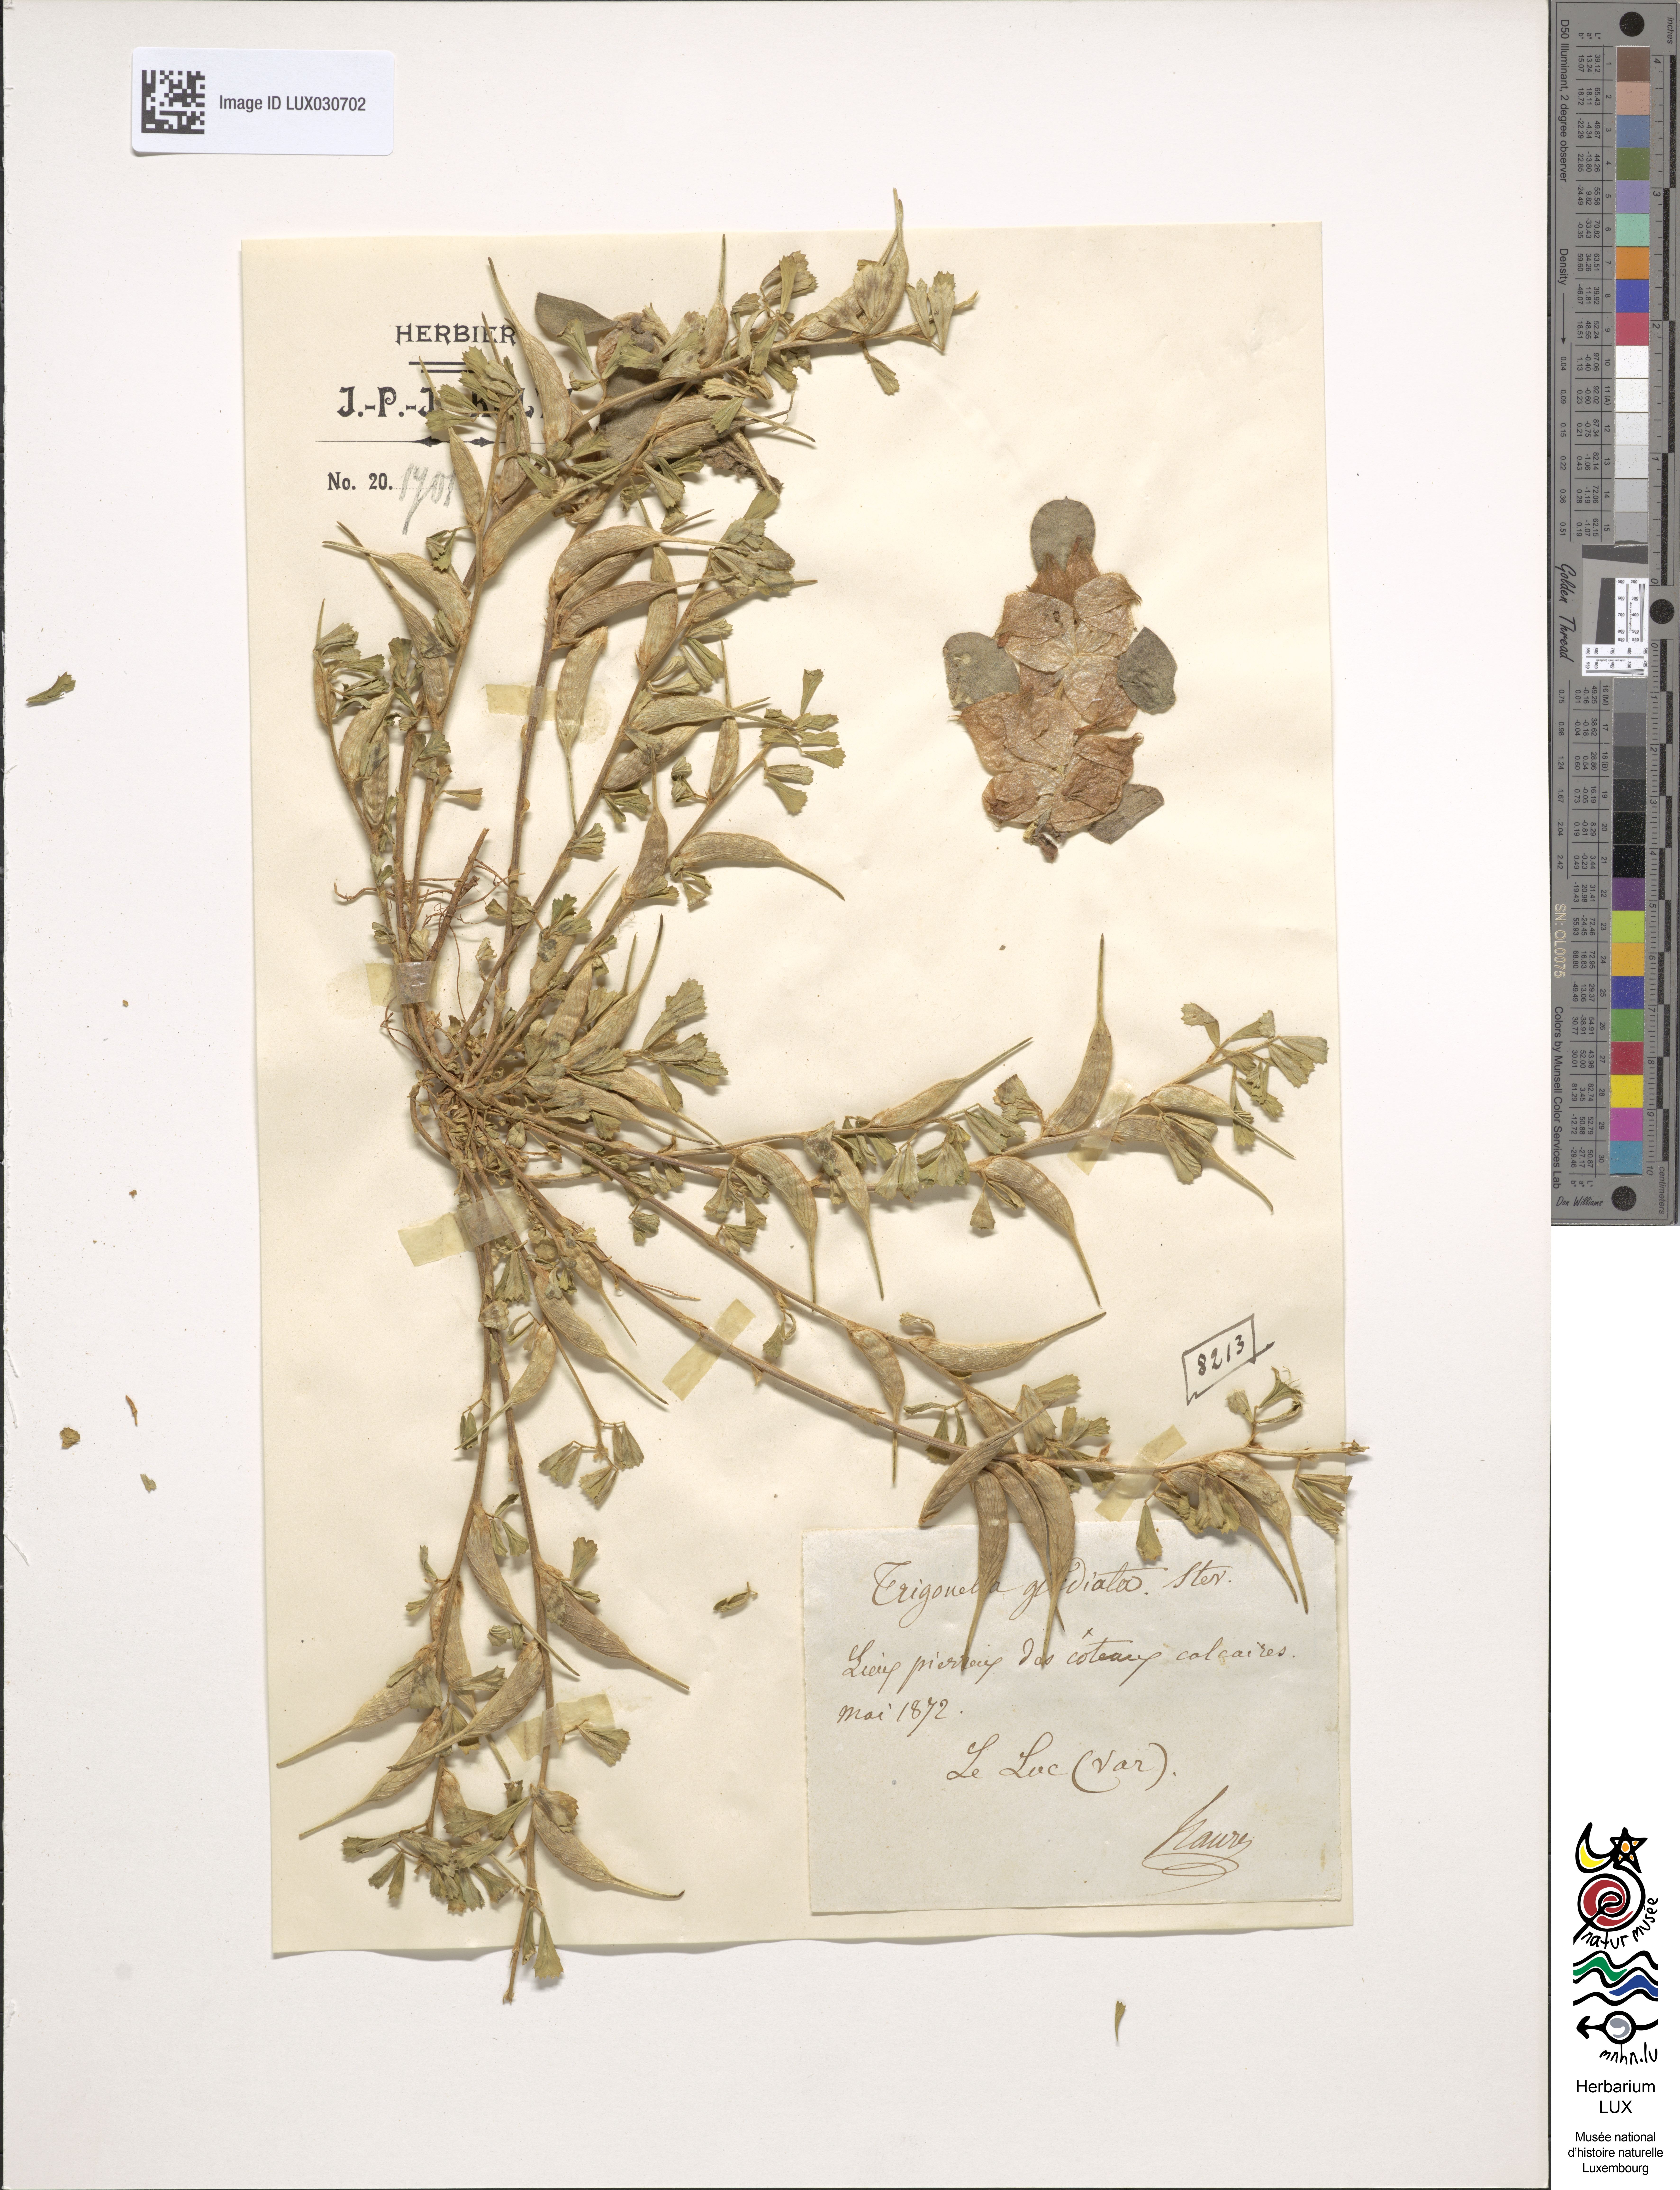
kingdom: Plantae
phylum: Tracheophyta
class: Magnoliopsida
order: Fabales
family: Fabaceae
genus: Trigonella
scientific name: Trigonella
